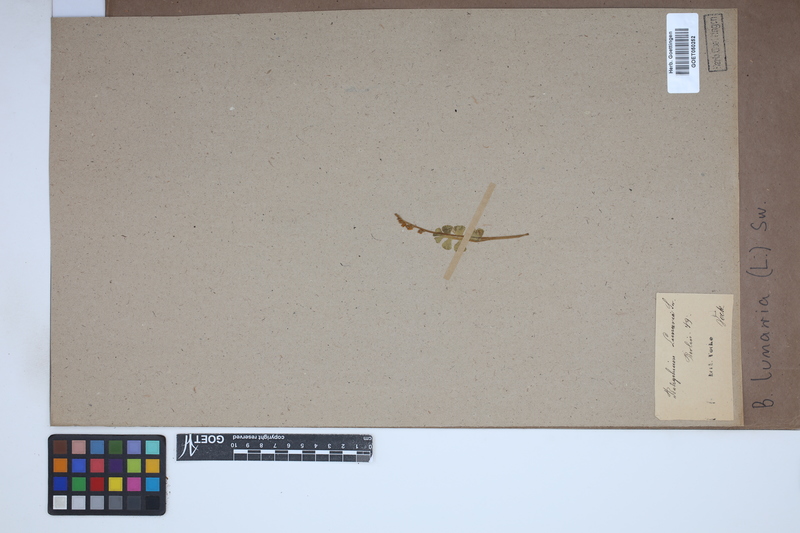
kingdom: Plantae
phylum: Tracheophyta
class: Polypodiopsida
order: Ophioglossales
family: Ophioglossaceae
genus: Botrychium
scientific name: Botrychium lunaria
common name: Moonwort
